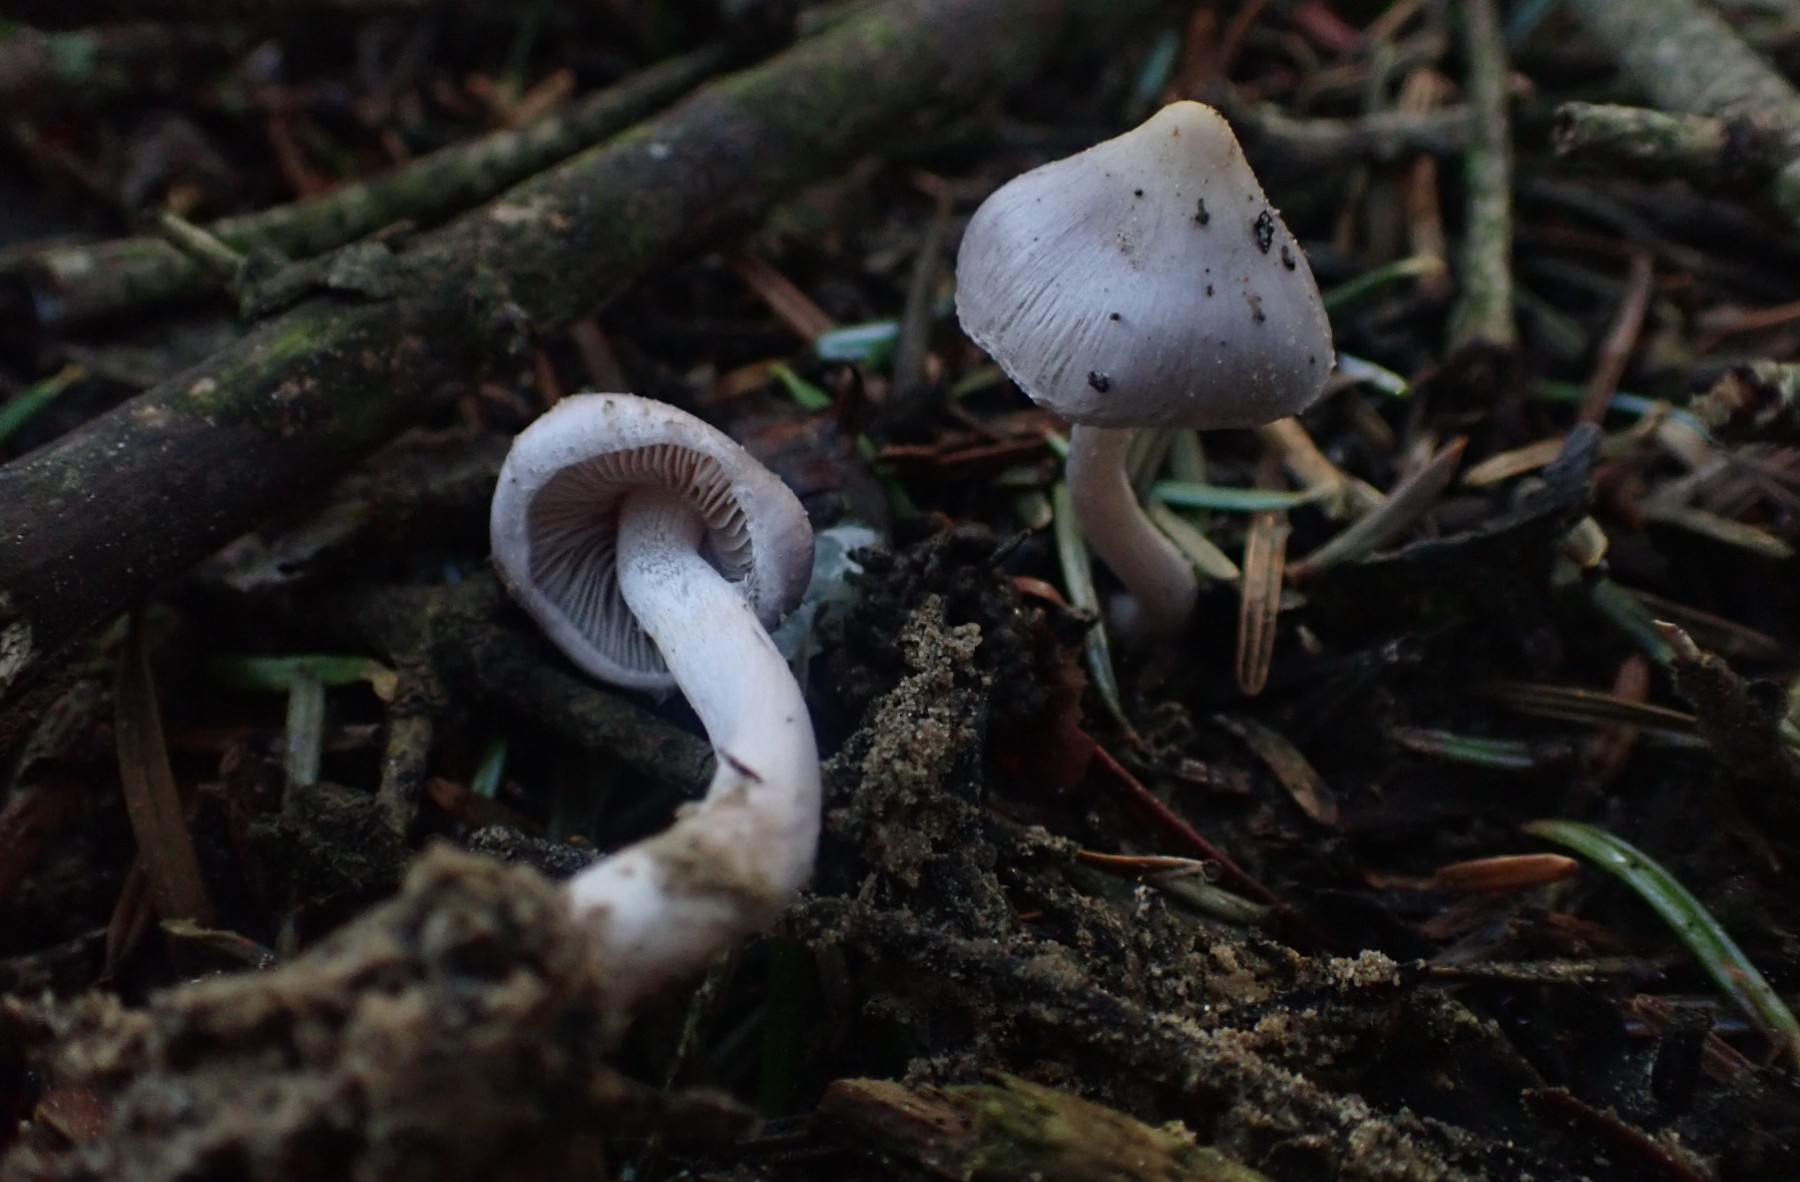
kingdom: Fungi
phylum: Basidiomycota
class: Agaricomycetes
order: Agaricales
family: Inocybaceae
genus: Inocybe
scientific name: Inocybe geophylla
